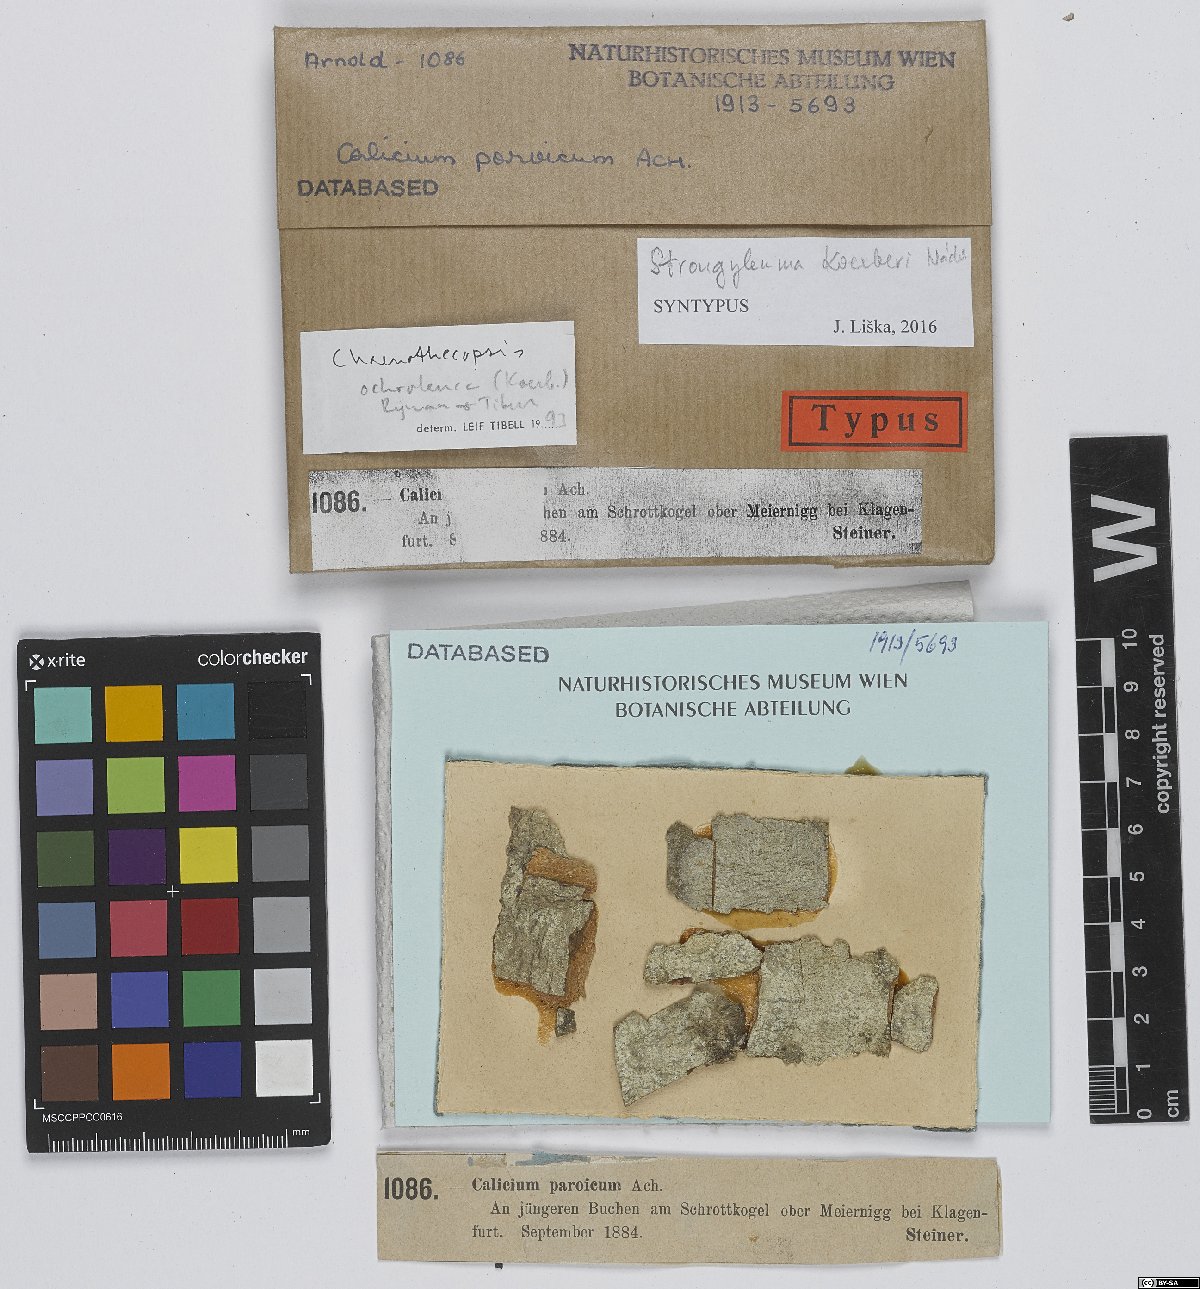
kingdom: Fungi
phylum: Ascomycota
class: Eurotiomycetes
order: Mycocaliciales
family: Mycocaliciaceae
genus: Chaenothecopsis
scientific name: Chaenothecopsis koerberi
